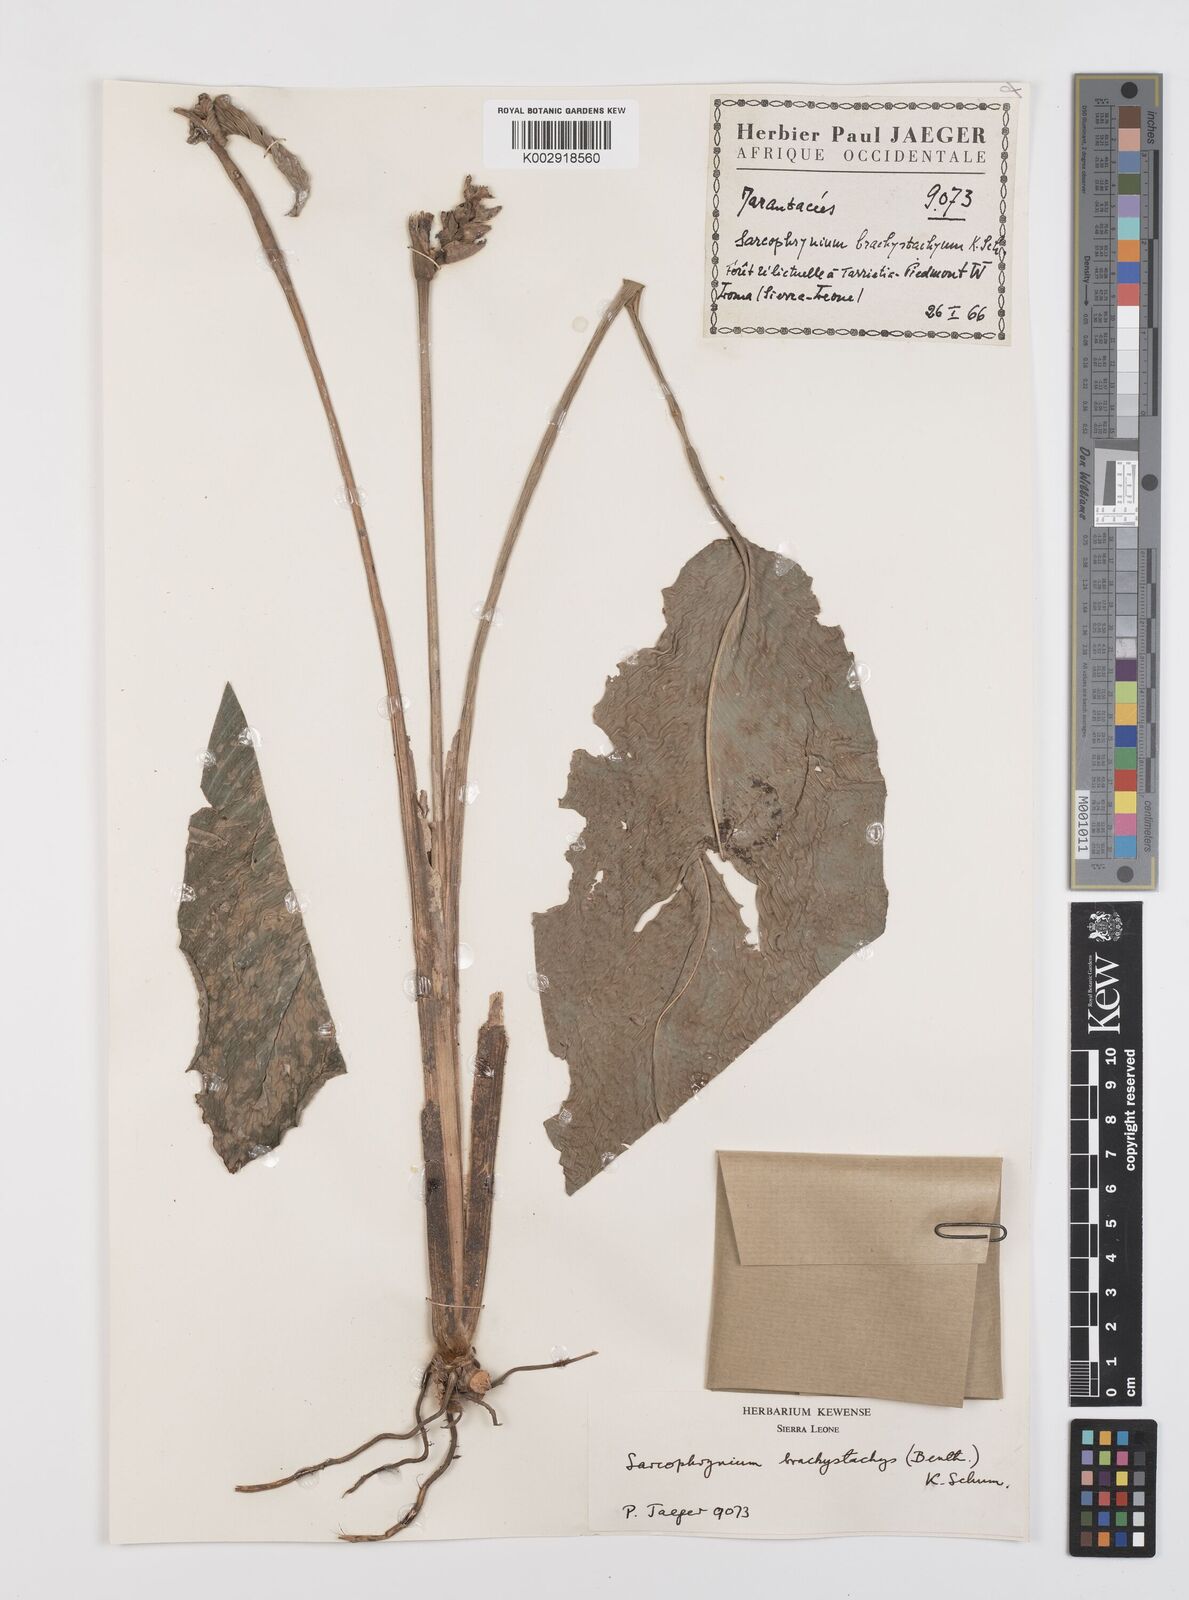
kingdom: Plantae
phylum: Tracheophyta
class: Liliopsida
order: Zingiberales
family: Marantaceae
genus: Sarcophrynium
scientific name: Sarcophrynium brachystachyum
